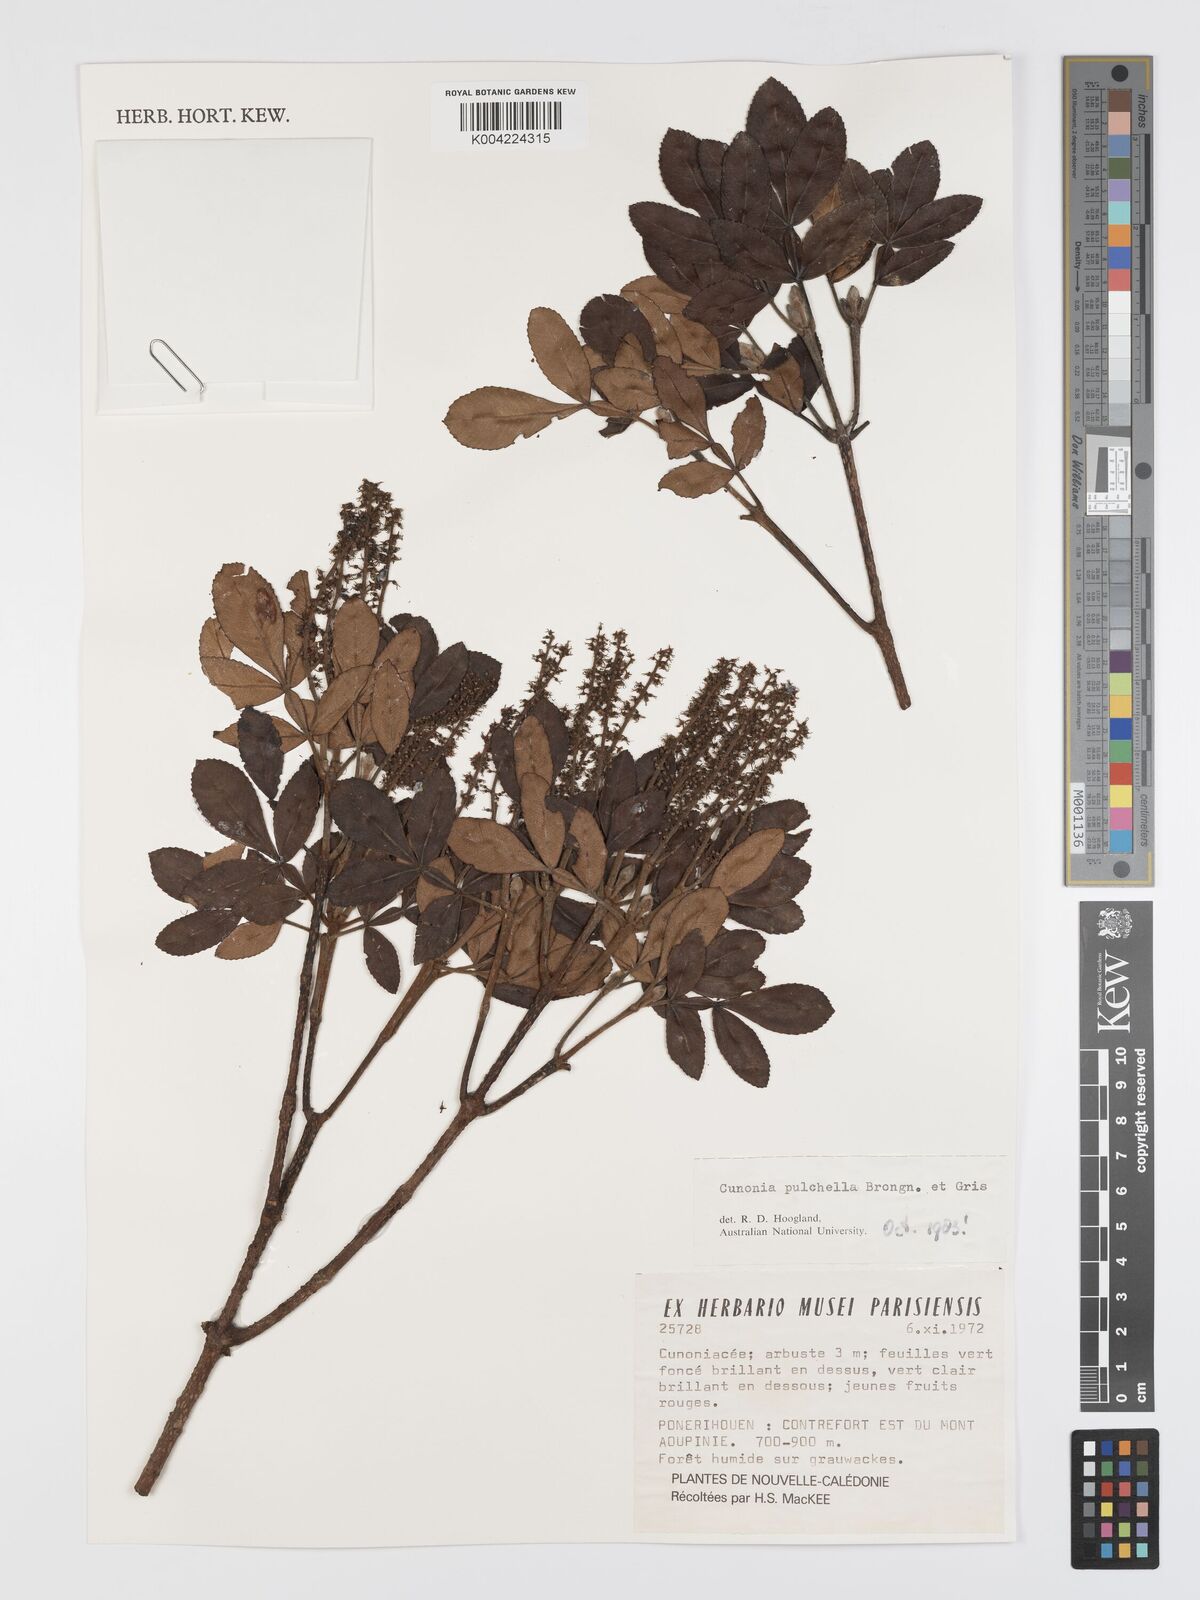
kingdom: Plantae
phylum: Tracheophyta
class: Magnoliopsida
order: Oxalidales
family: Cunoniaceae
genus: Cunonia
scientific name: Cunonia pulchella
